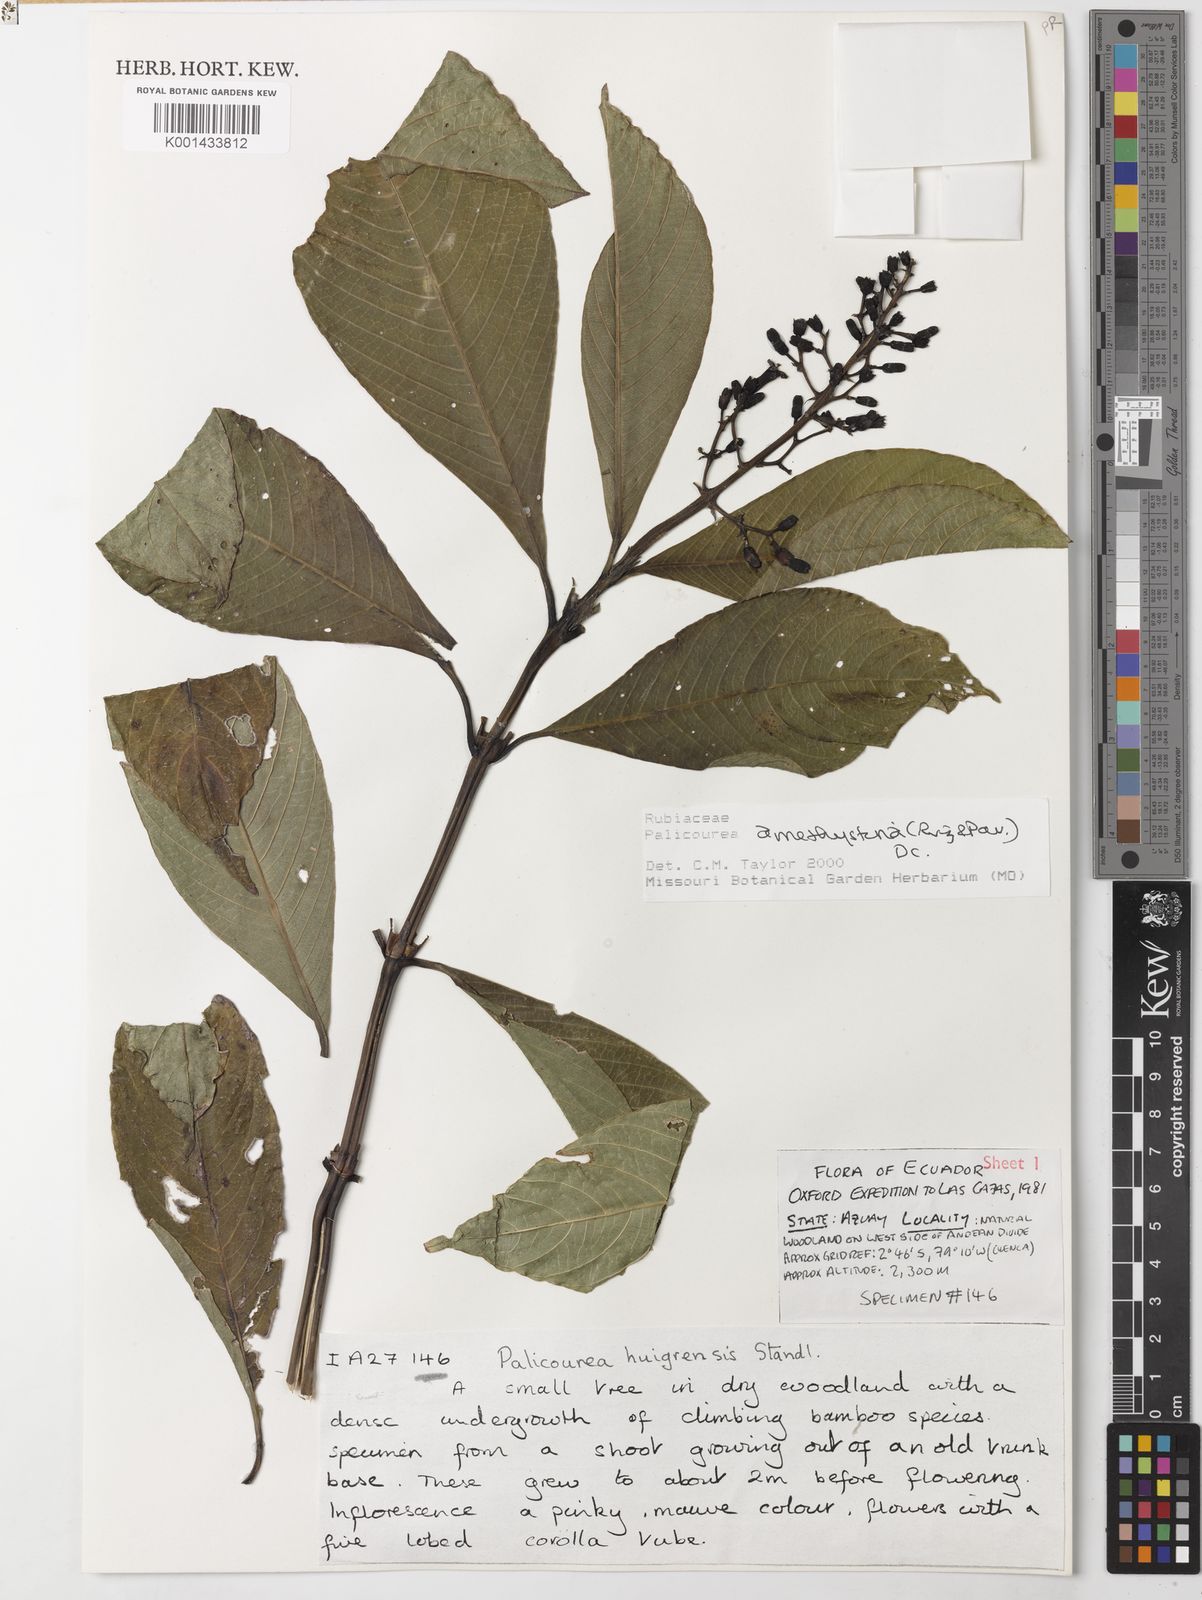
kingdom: Plantae
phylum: Tracheophyta
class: Magnoliopsida
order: Gentianales
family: Rubiaceae
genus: Palicourea
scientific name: Palicourea amethystina
